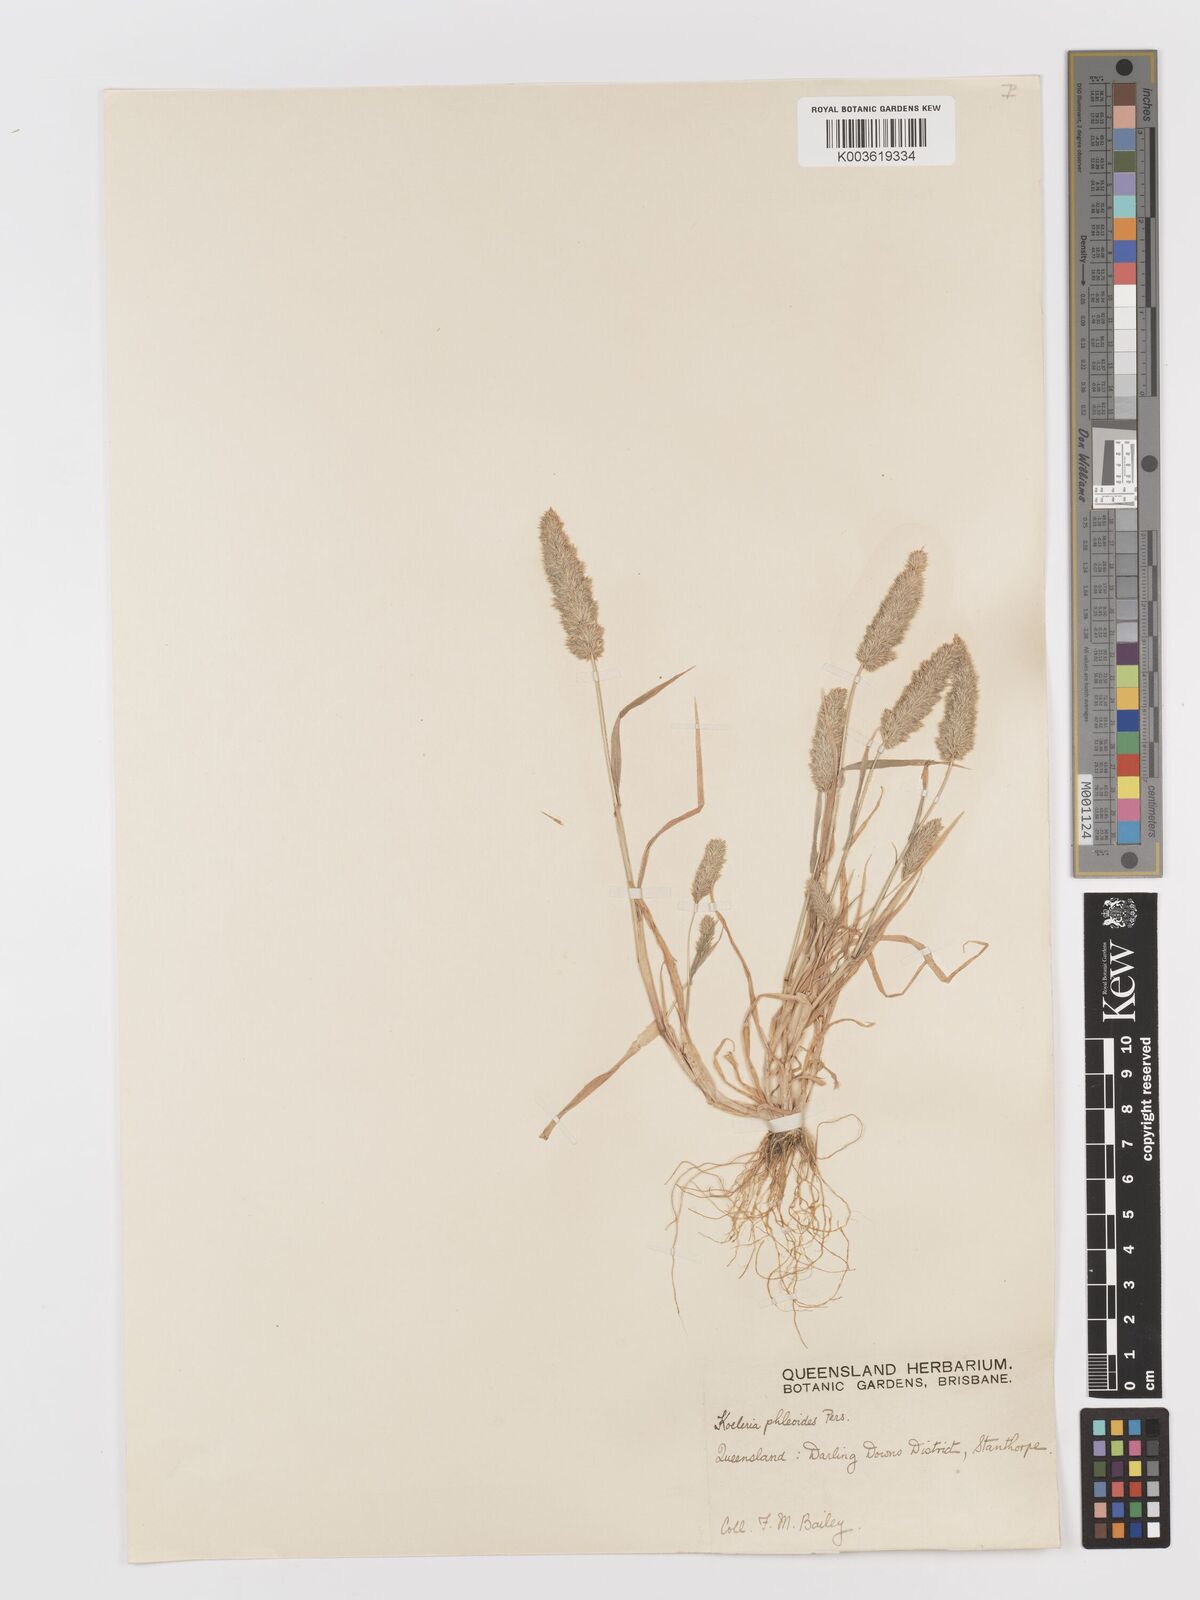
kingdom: Plantae
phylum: Tracheophyta
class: Liliopsida
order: Poales
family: Poaceae
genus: Rostraria
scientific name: Rostraria cristata
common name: Mediterranean hair-grass
